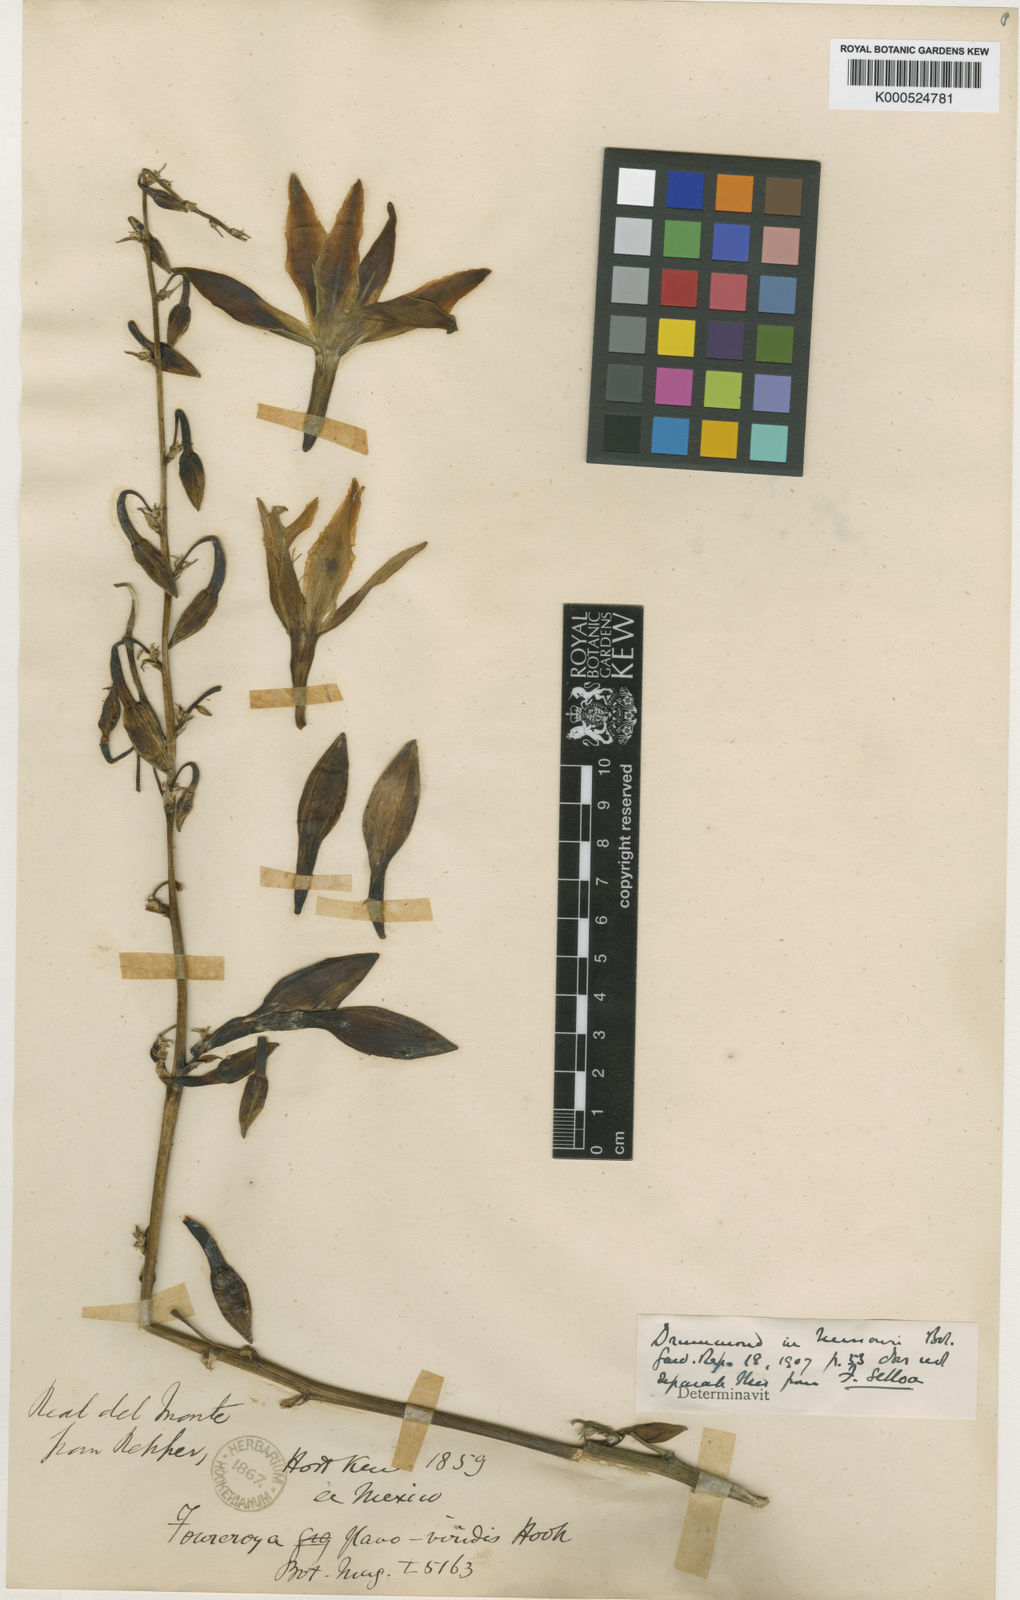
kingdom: Plantae
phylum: Tracheophyta
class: Liliopsida
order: Asparagales
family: Asparagaceae
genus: Furcraea
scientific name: Furcraea
